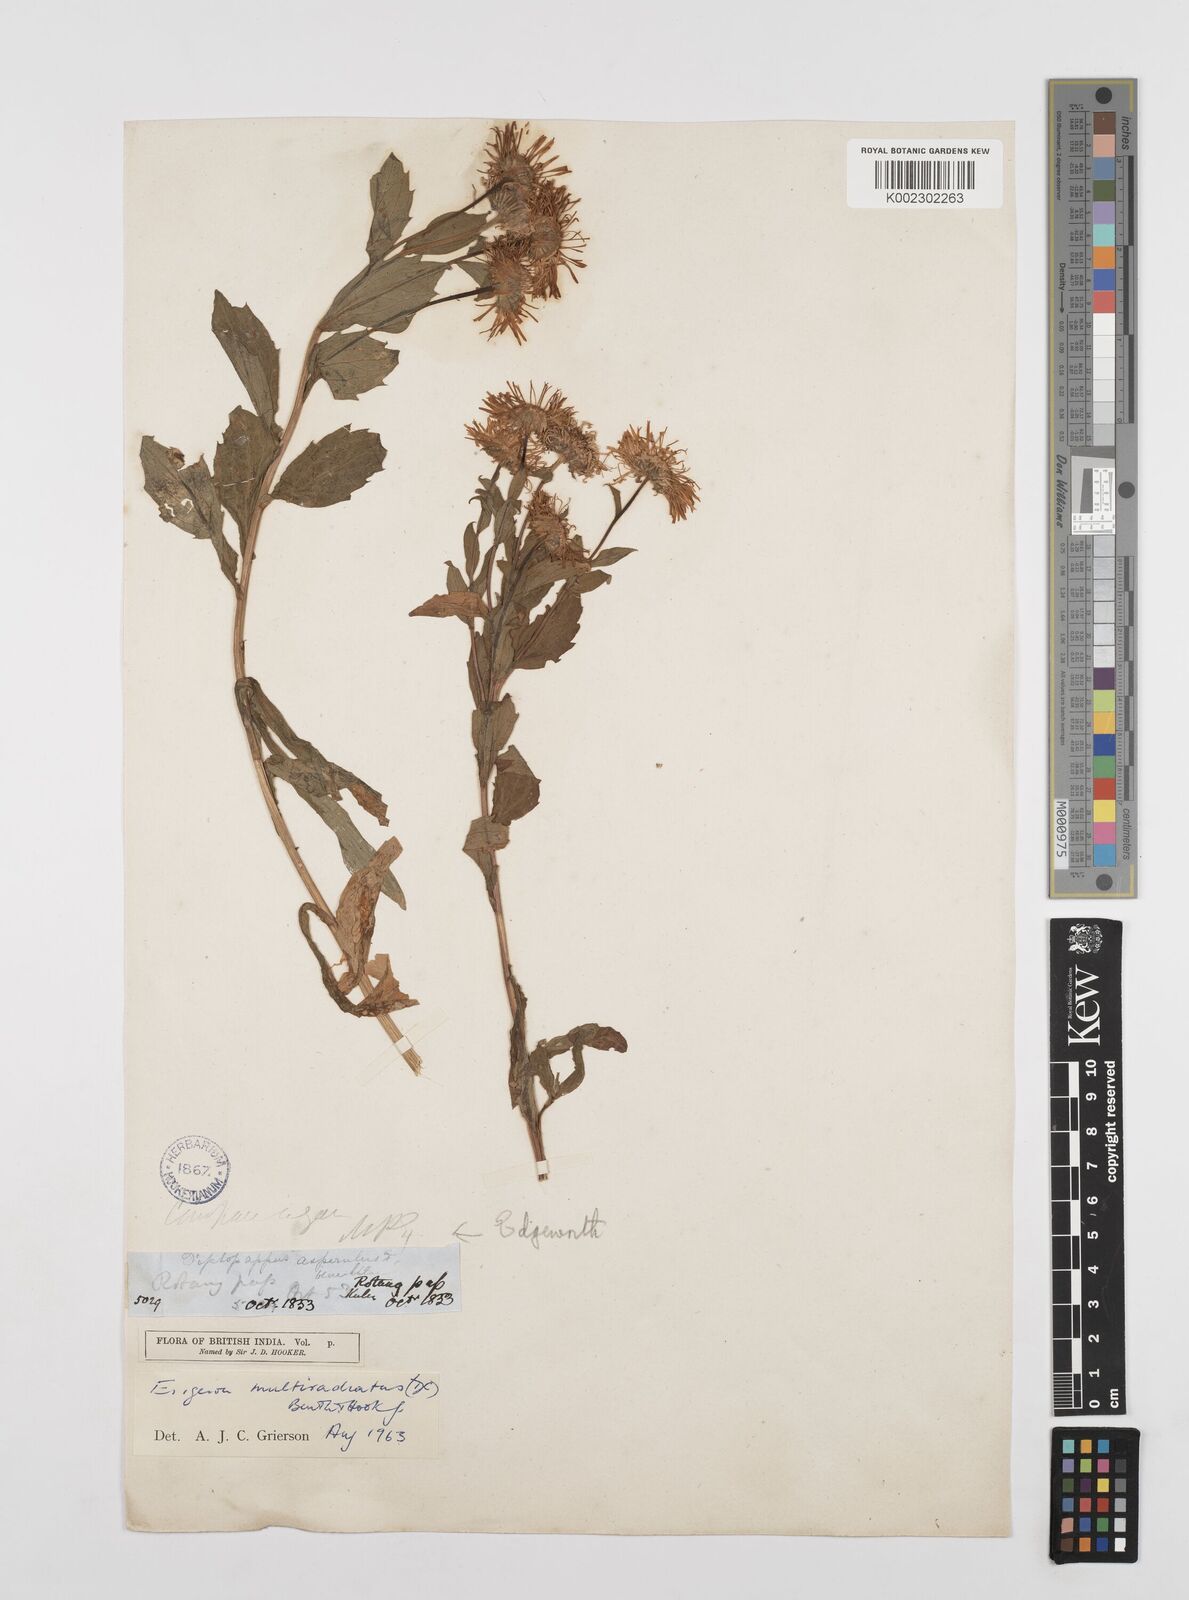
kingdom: Plantae
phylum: Tracheophyta
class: Magnoliopsida
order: Asterales
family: Asteraceae
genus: Erigeron
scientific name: Erigeron multiradiatus
